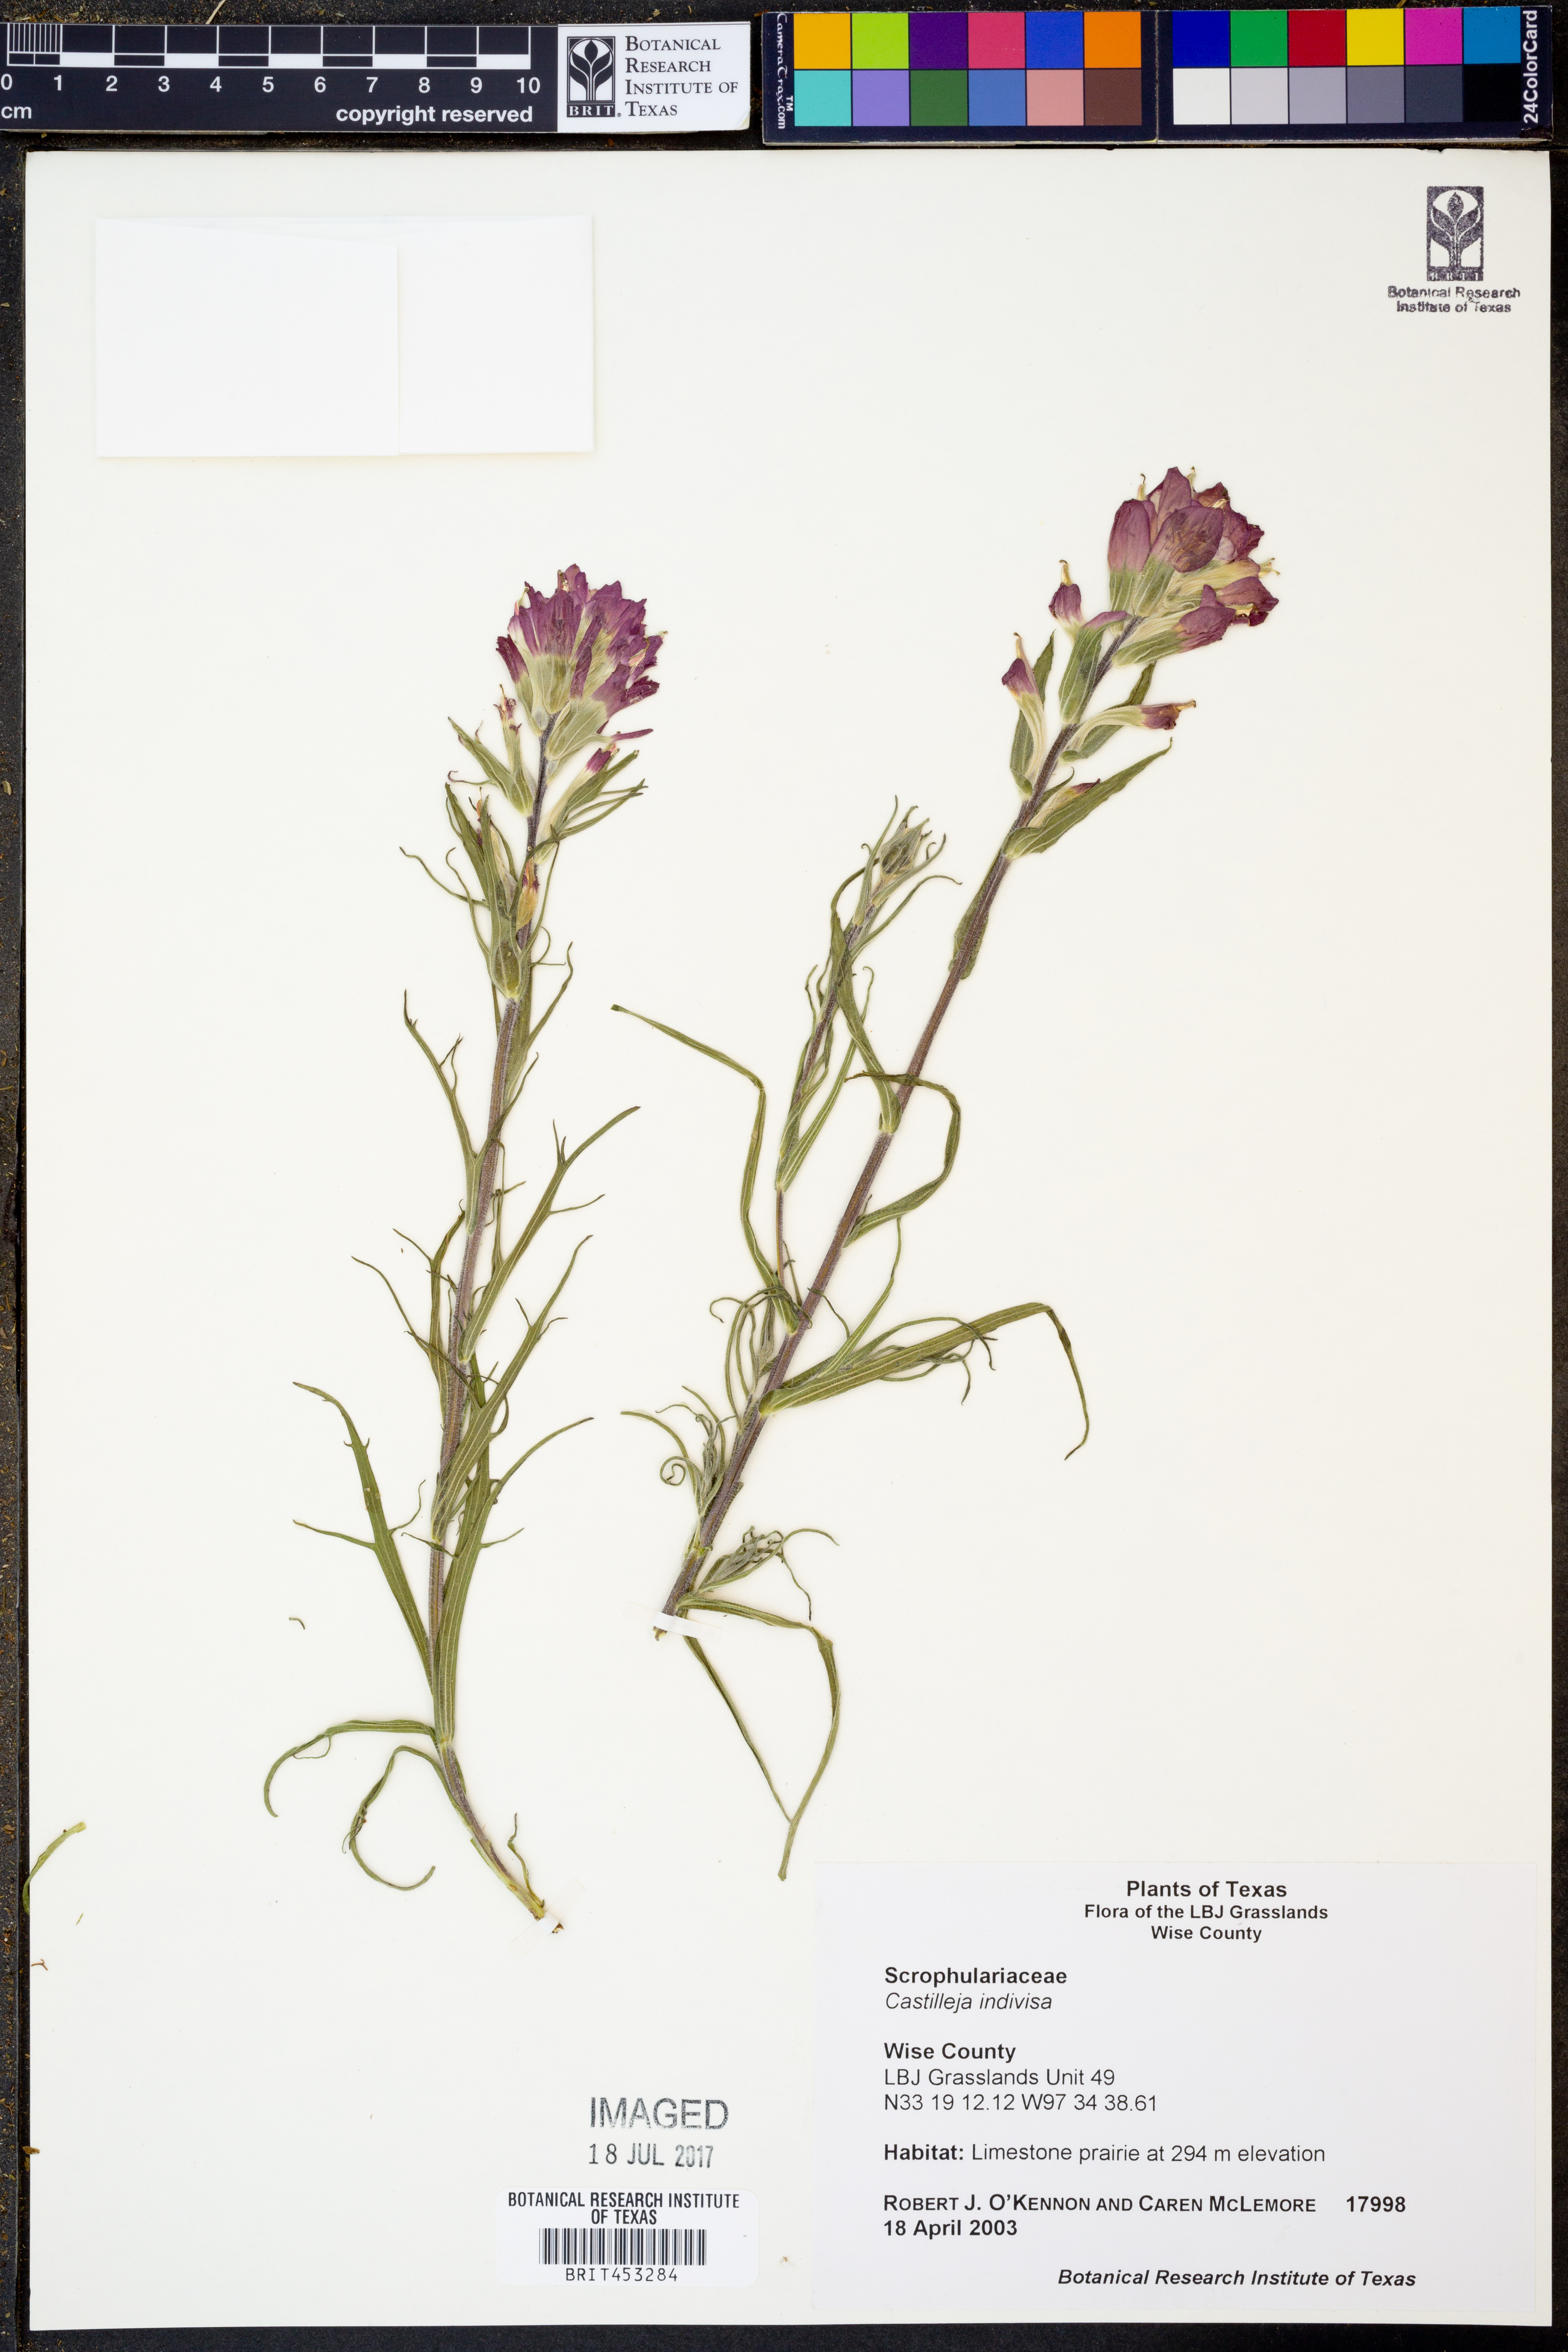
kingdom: Plantae
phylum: Tracheophyta
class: Magnoliopsida
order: Lamiales
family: Orobanchaceae
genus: Castilleja
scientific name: Castilleja indivisa
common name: Texas paintbrush
